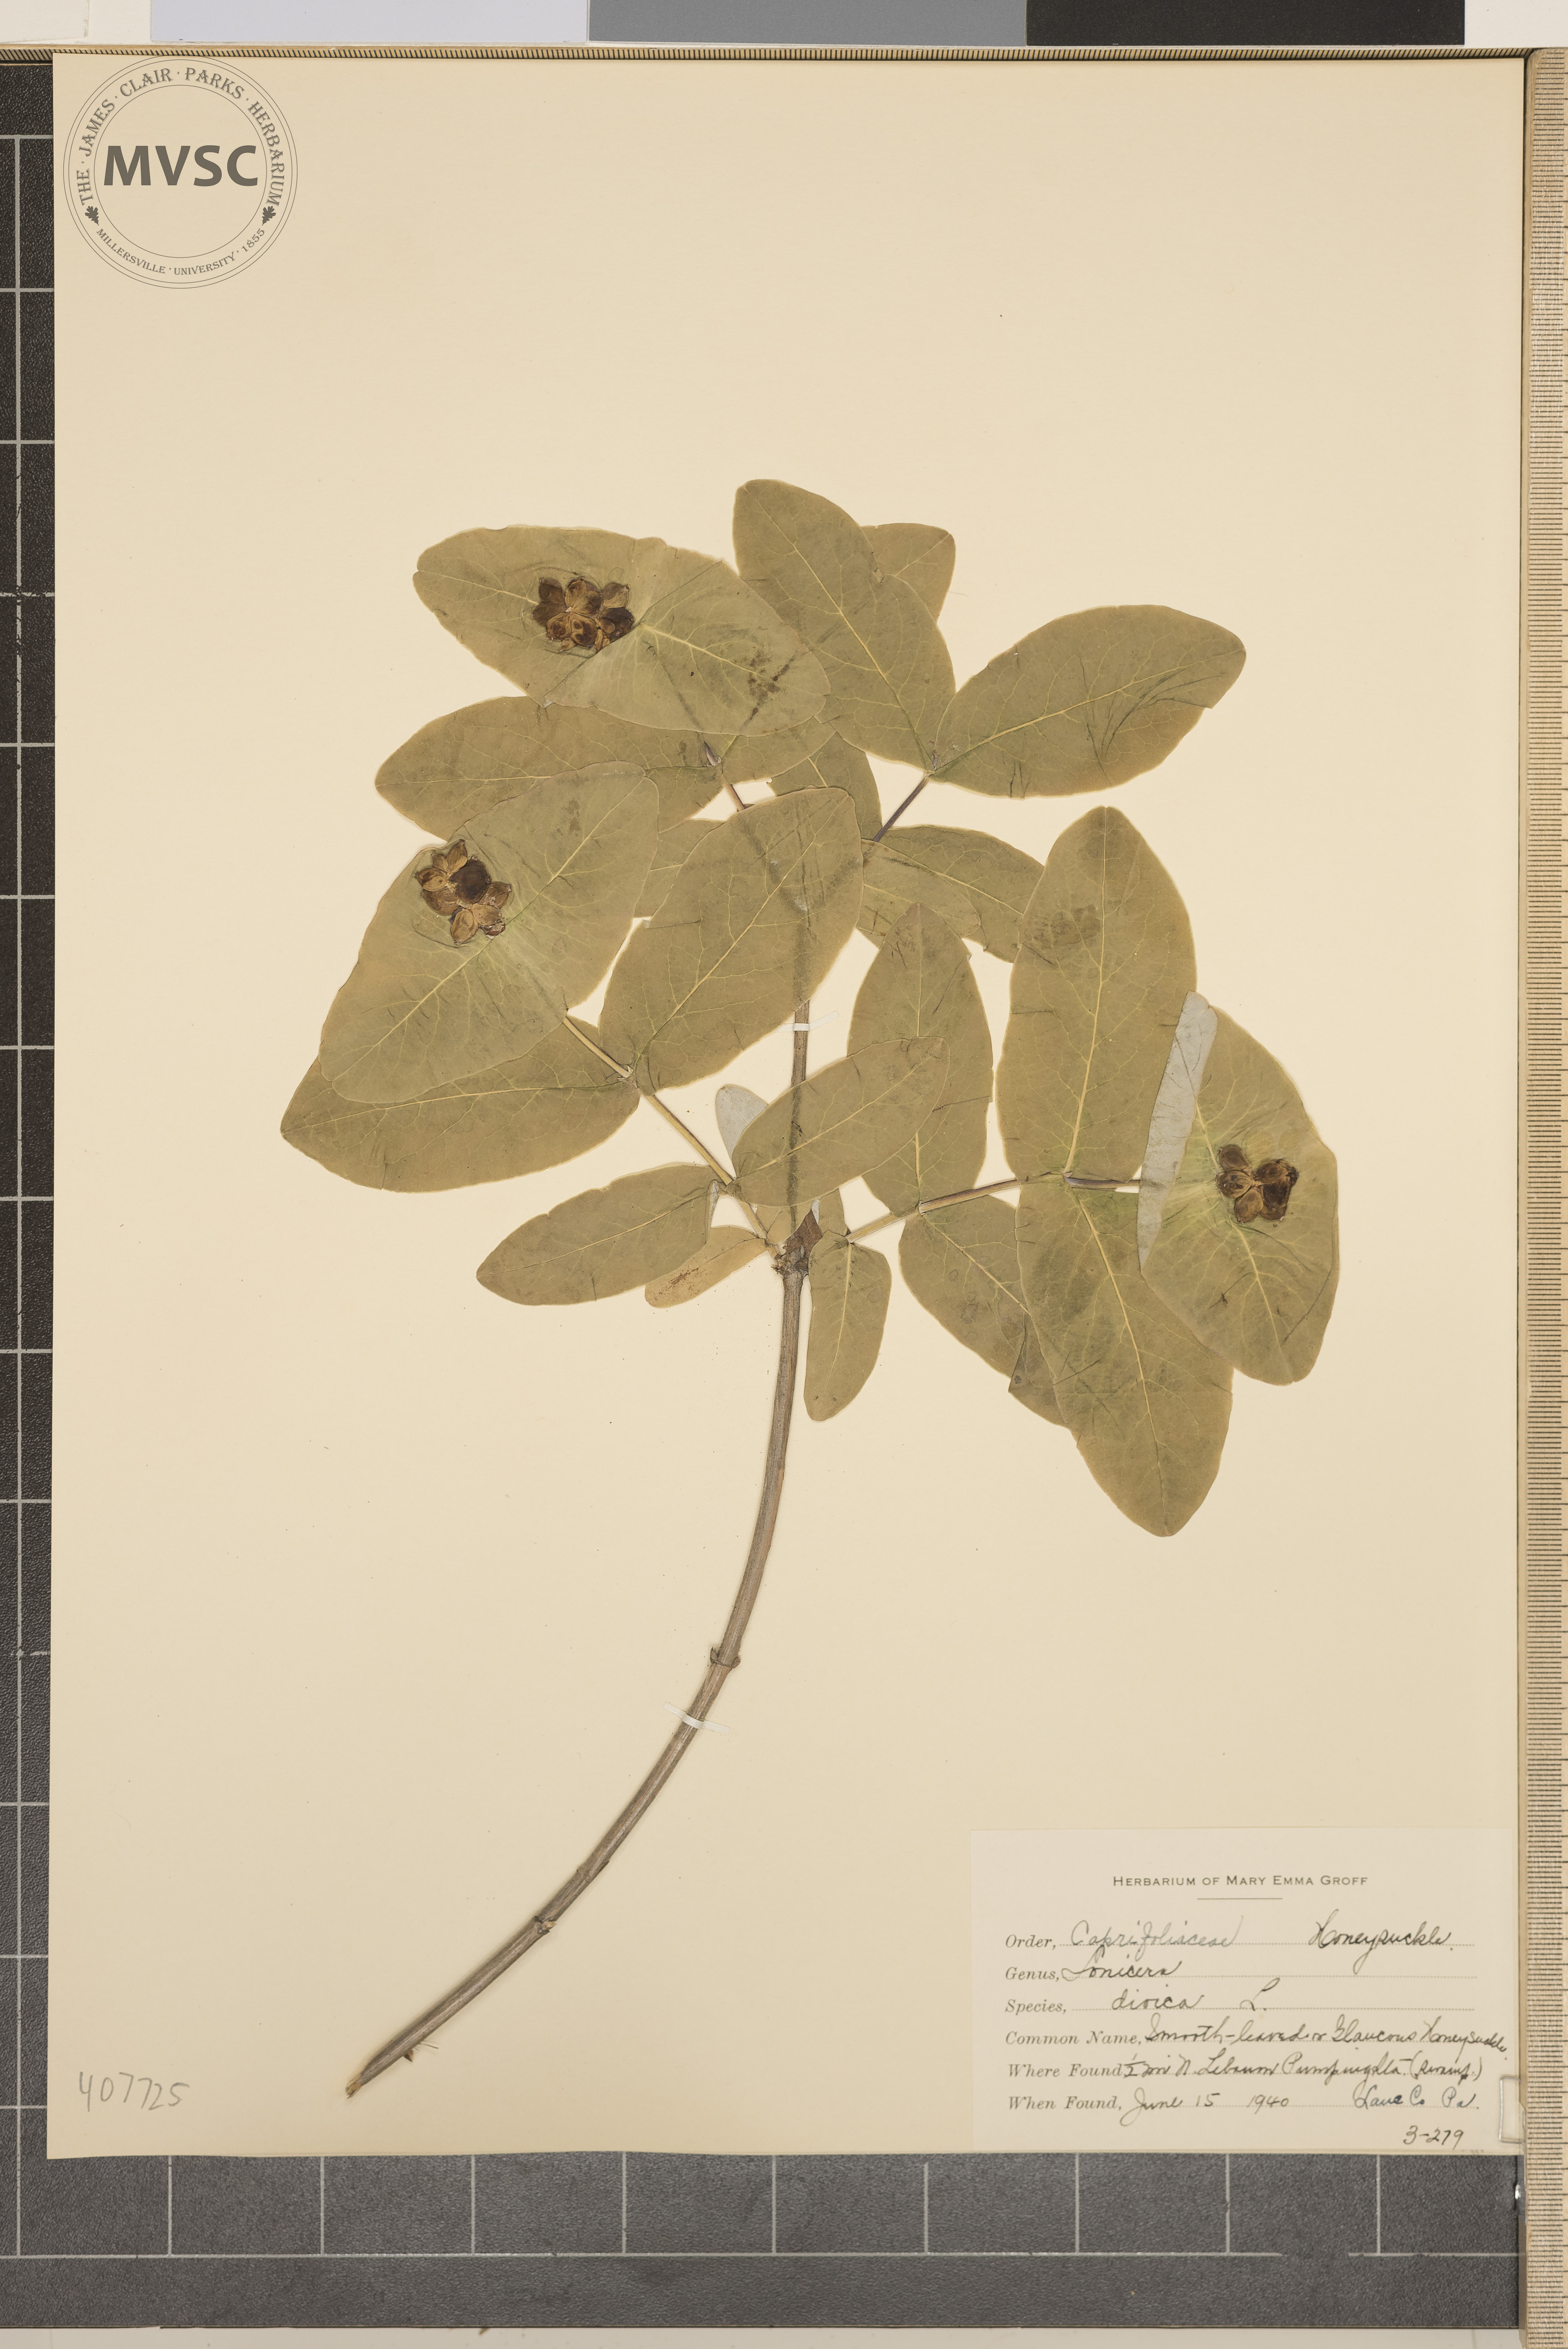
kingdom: Plantae
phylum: Tracheophyta
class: Magnoliopsida
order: Dipsacales
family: Caprifoliaceae
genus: Lonicera
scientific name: Lonicera dioica
